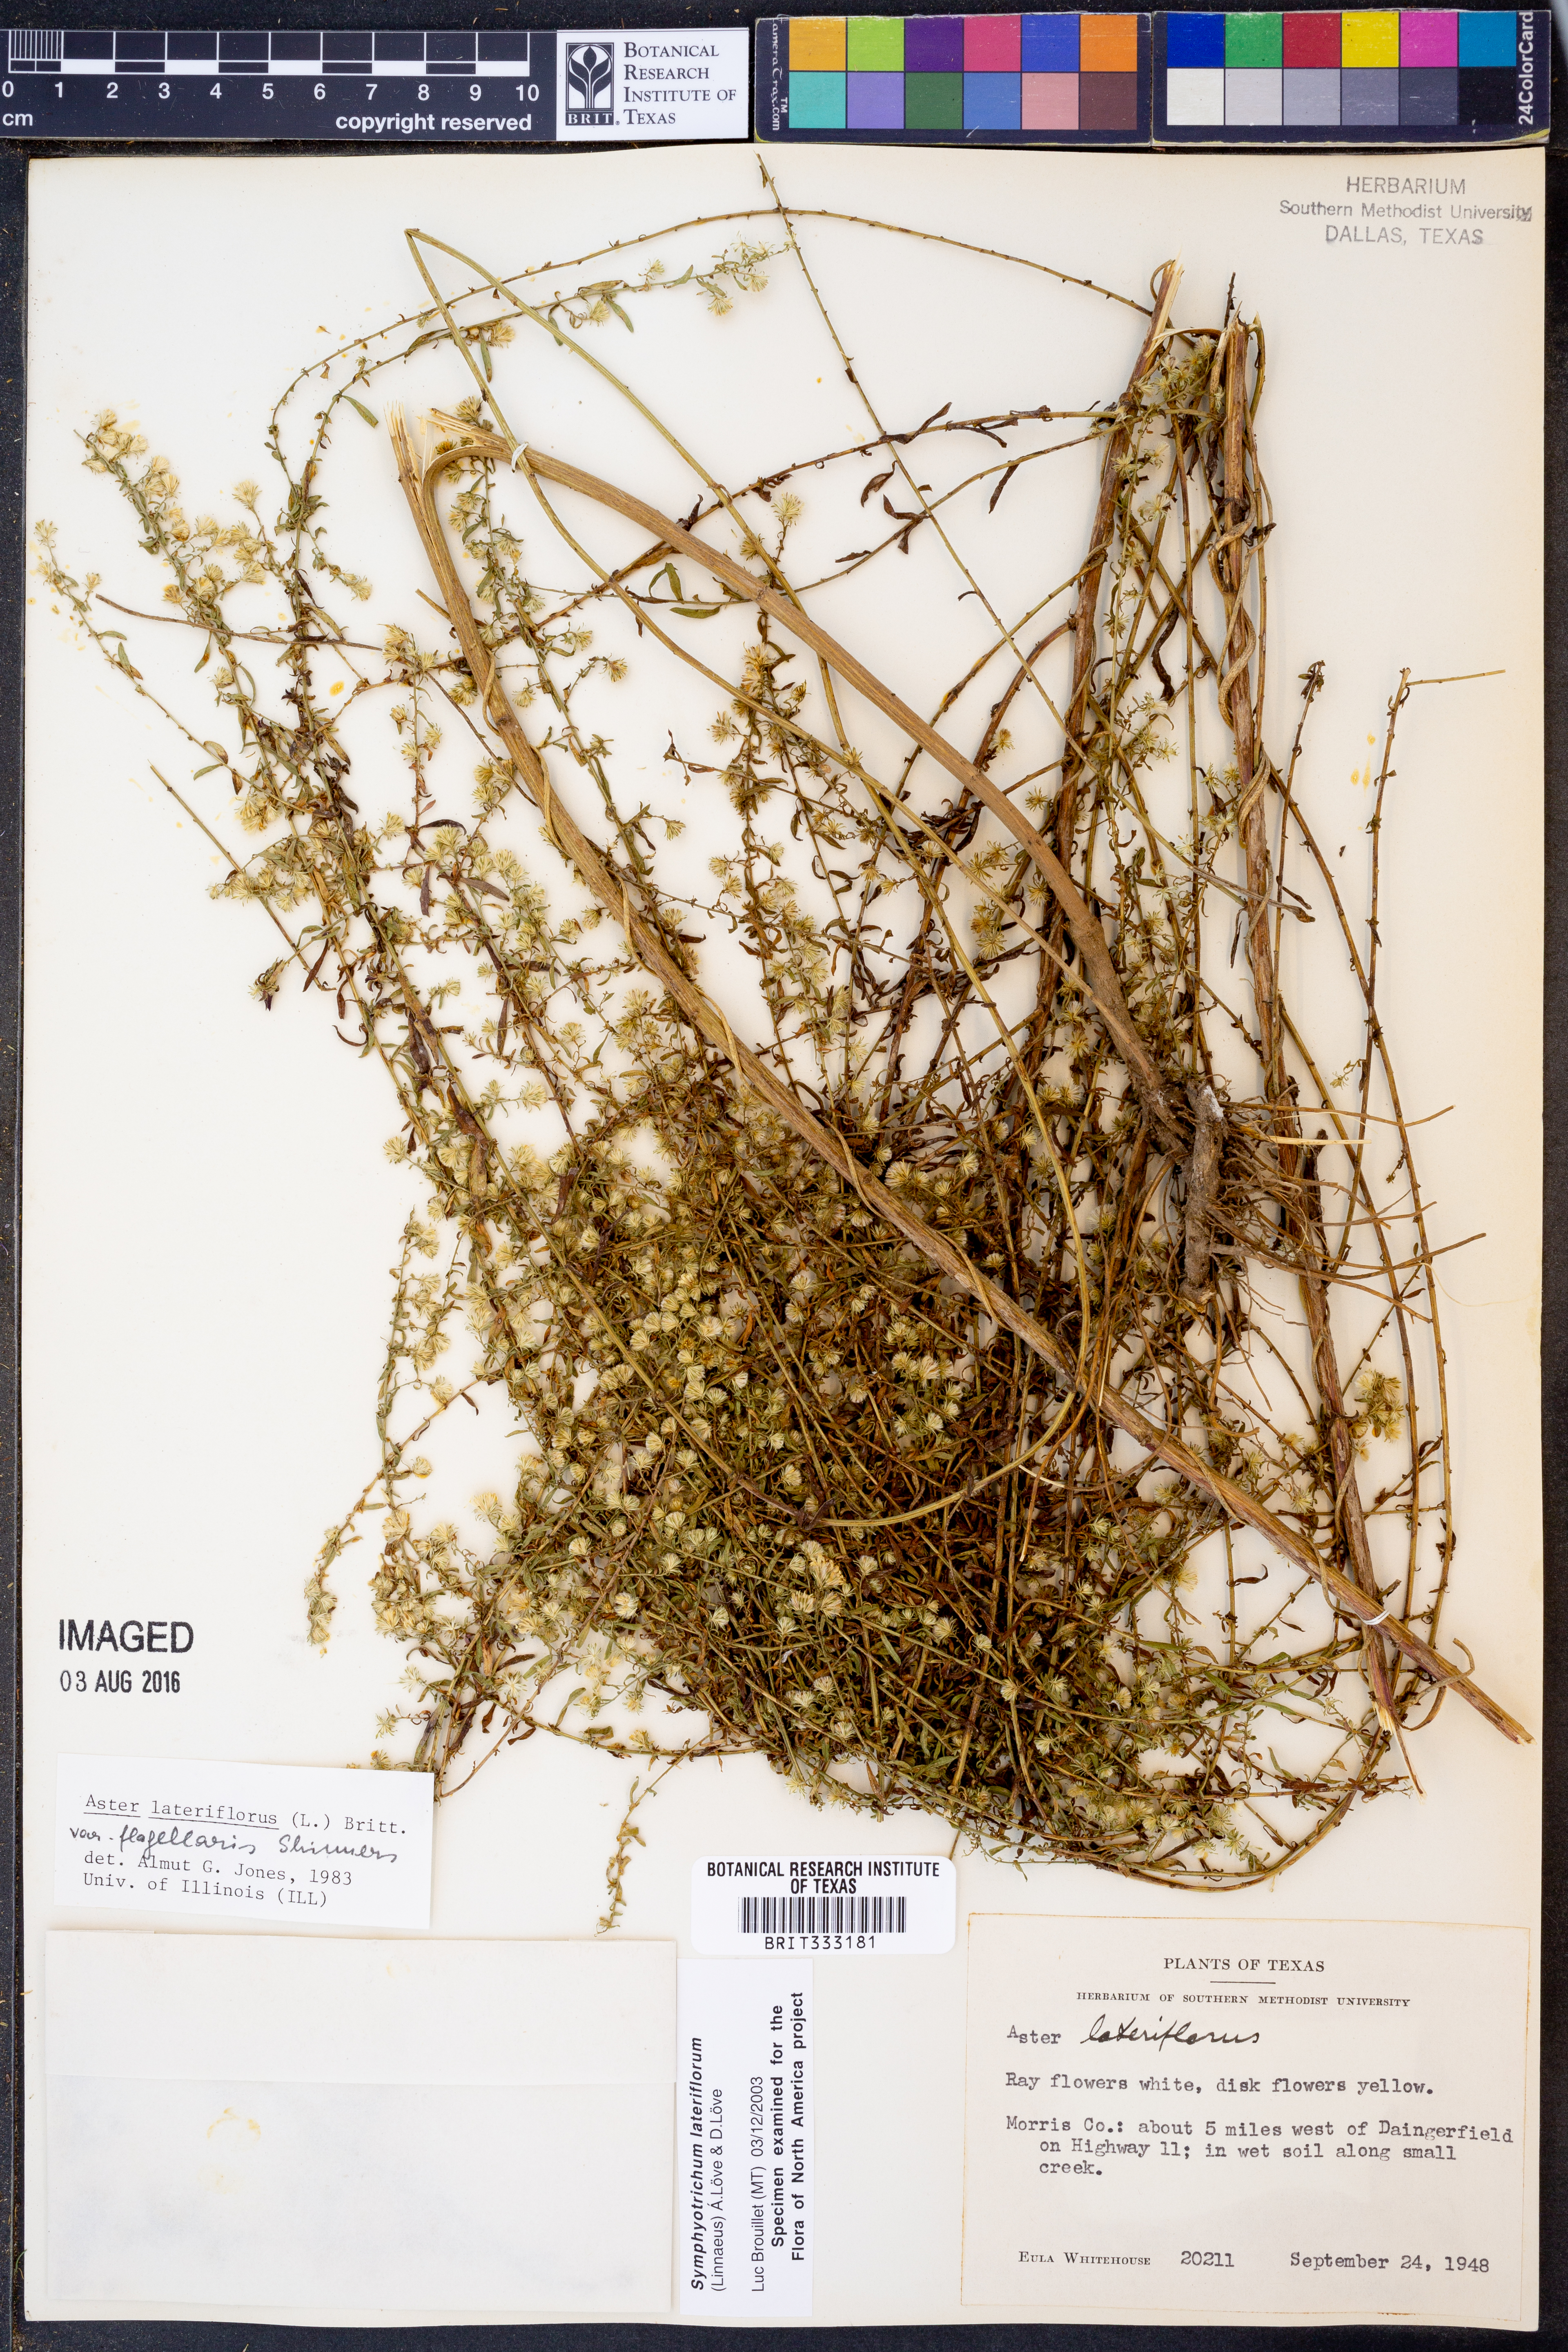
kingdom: Plantae
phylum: Tracheophyta
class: Magnoliopsida
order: Asterales
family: Asteraceae
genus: Symphyotrichum
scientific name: Symphyotrichum lateriflorum
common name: Calico aster
